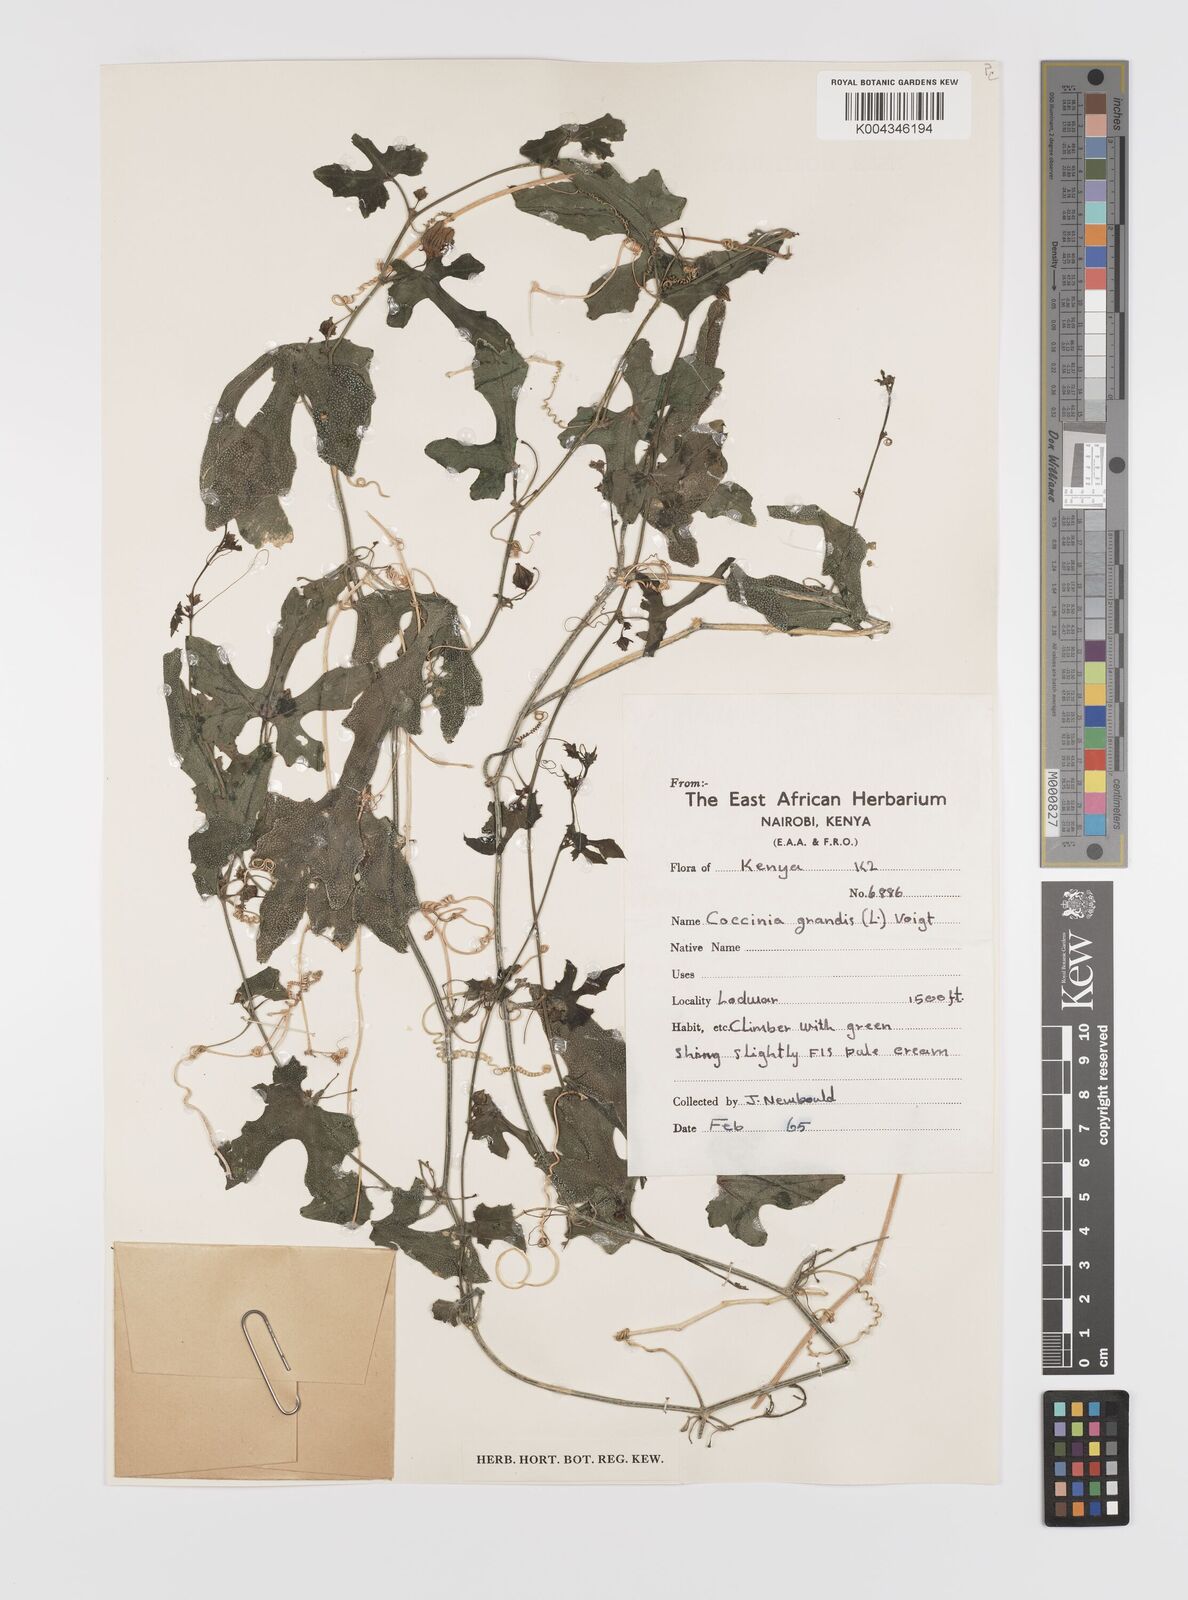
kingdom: Plantae
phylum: Tracheophyta
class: Magnoliopsida
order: Cucurbitales
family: Cucurbitaceae
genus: Coccinia
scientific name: Coccinia grandis
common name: Ivy gourd
